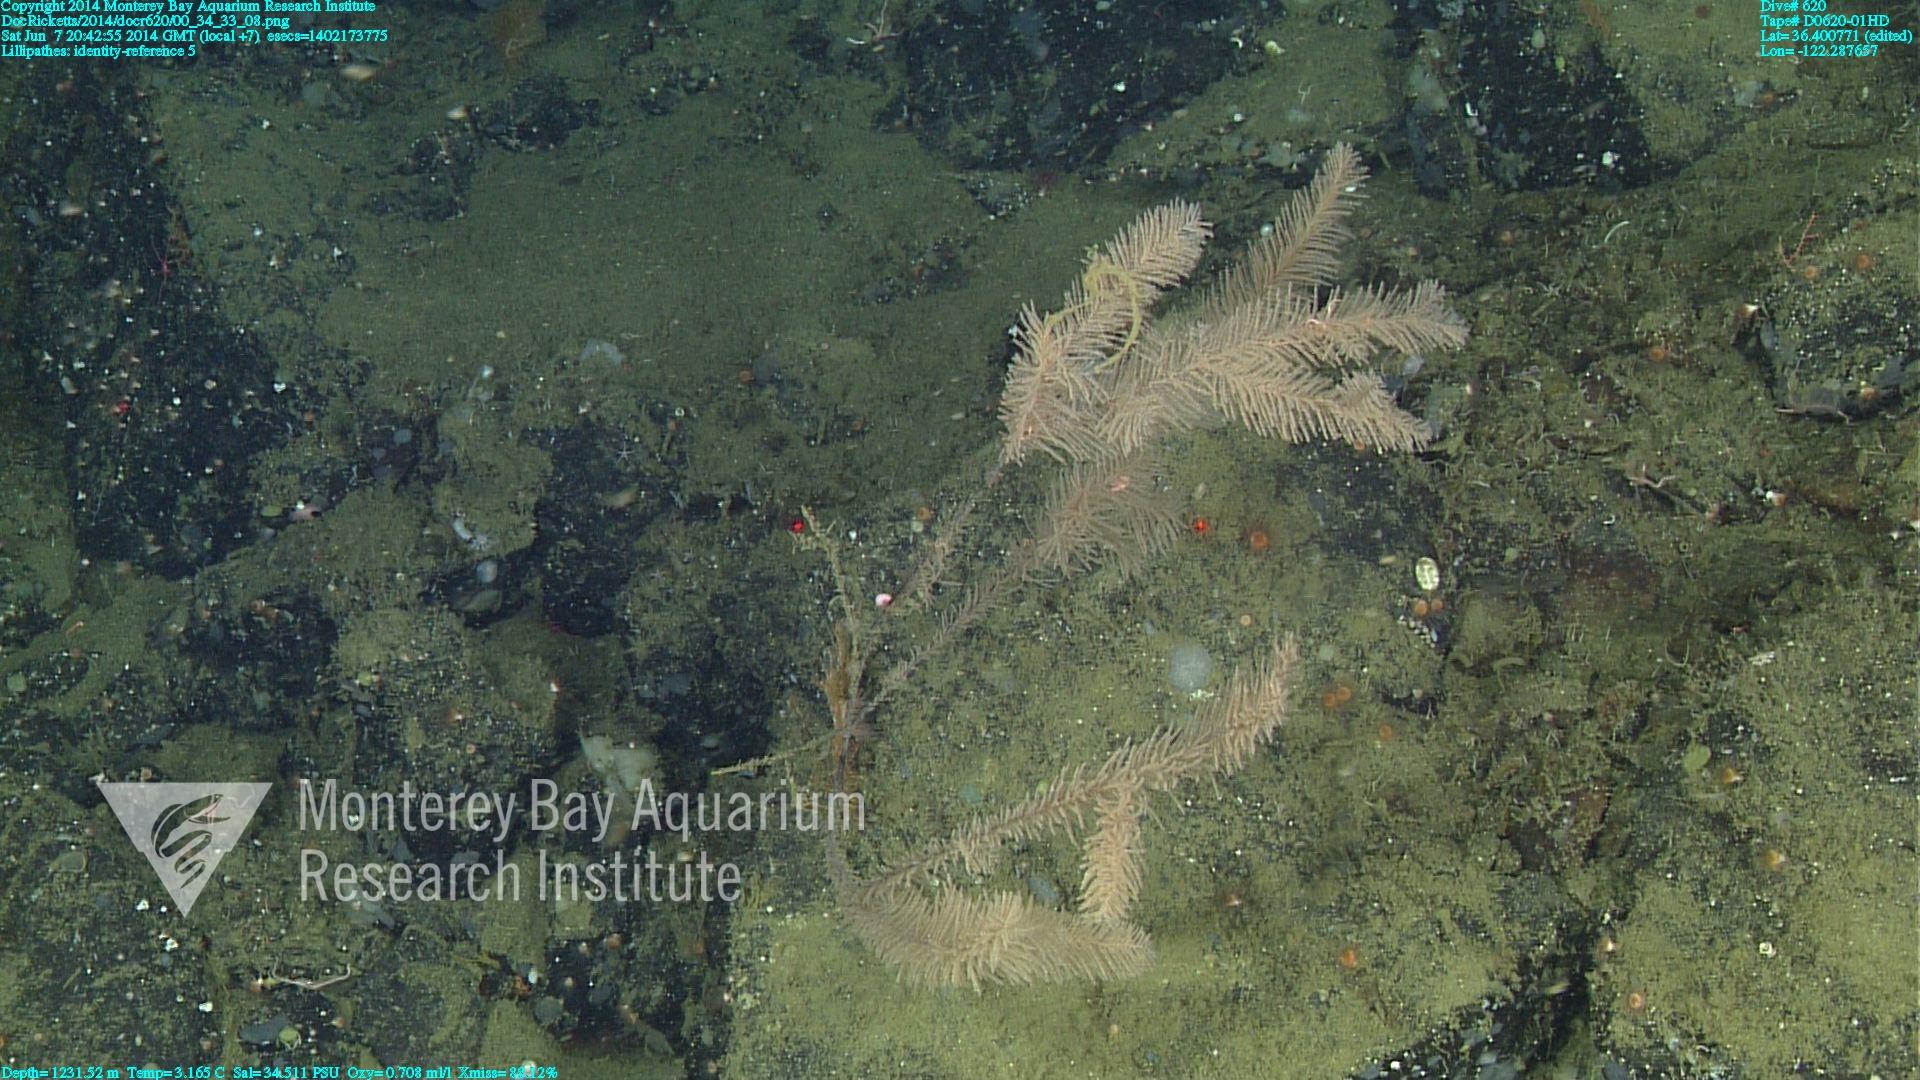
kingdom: Animalia
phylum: Cnidaria
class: Anthozoa
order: Antipatharia
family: Schizopathidae
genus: Lillipathes
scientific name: Lillipathes
